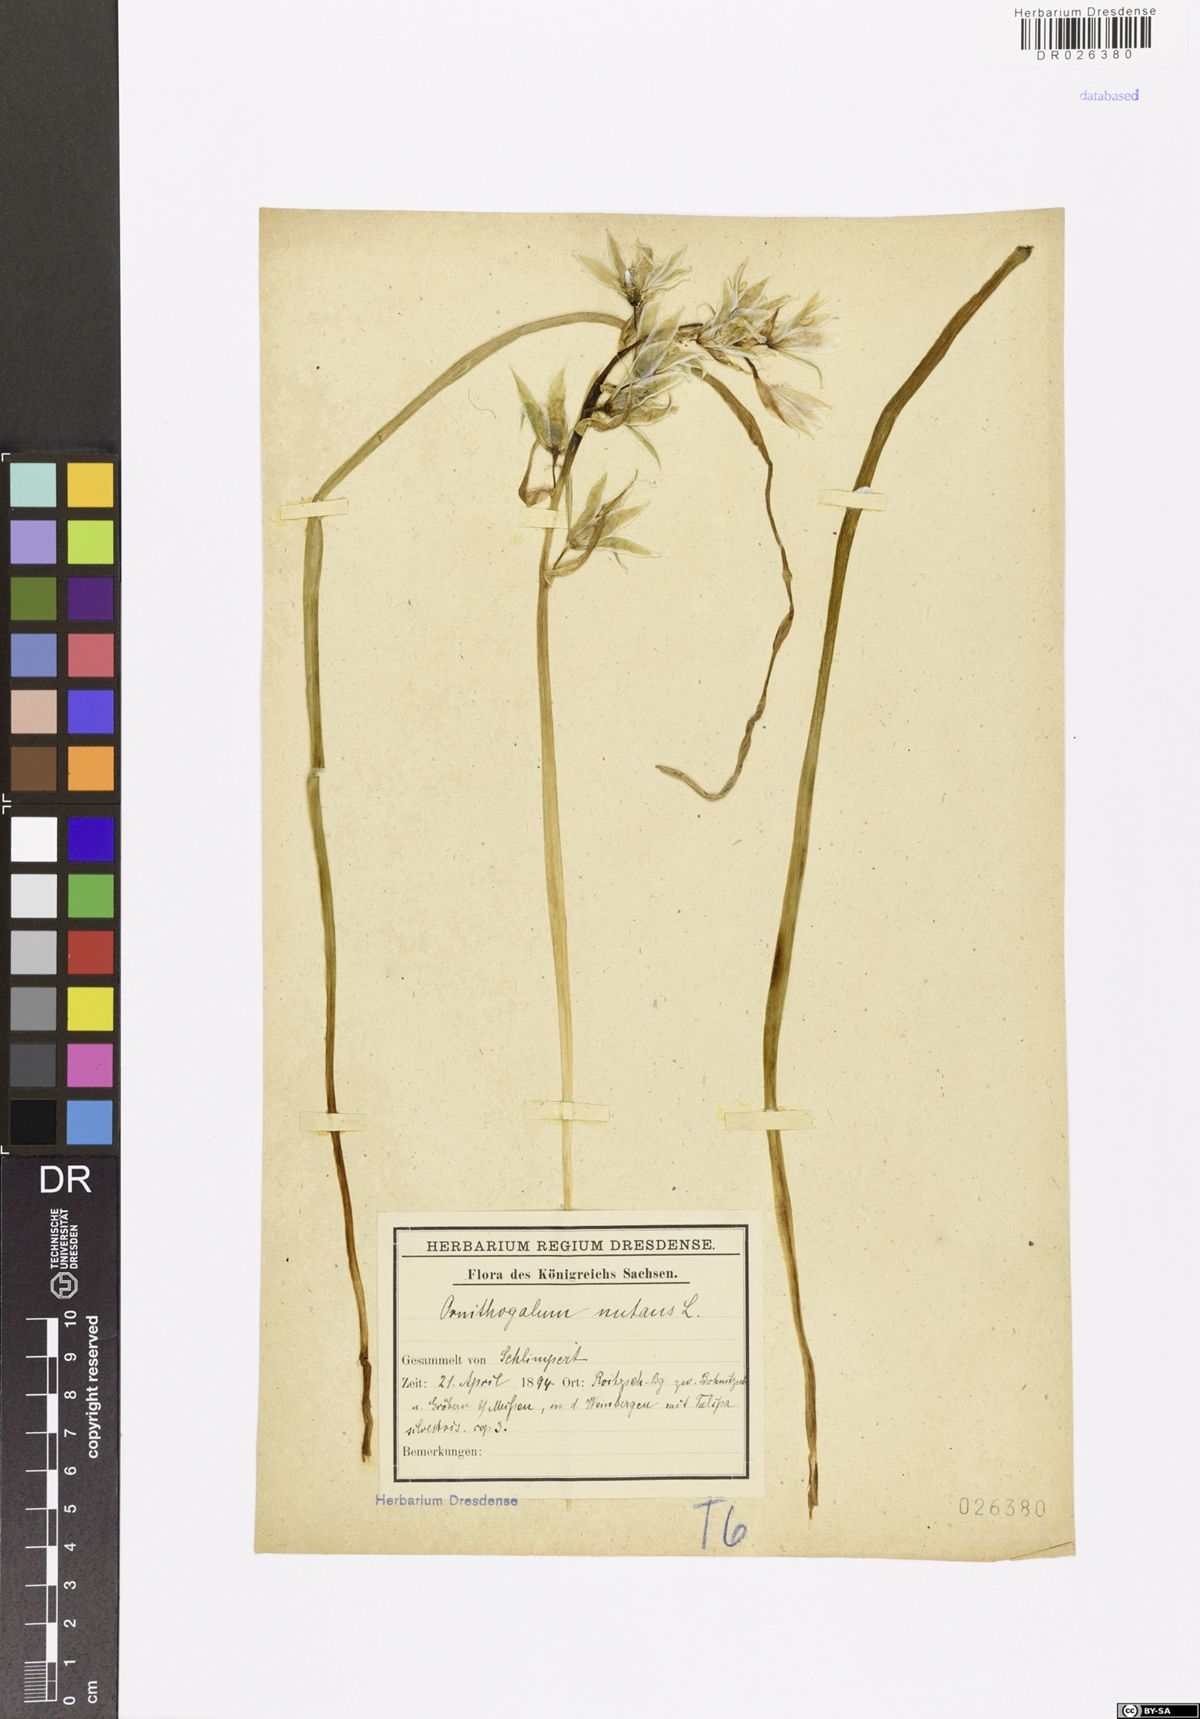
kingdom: Plantae
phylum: Tracheophyta
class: Liliopsida
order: Asparagales
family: Asparagaceae
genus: Ornithogalum
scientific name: Ornithogalum nutans
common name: Drooping star-of-bethlehem
